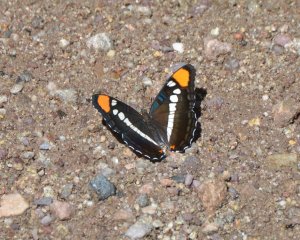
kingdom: Animalia
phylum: Arthropoda
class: Insecta
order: Lepidoptera
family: Nymphalidae
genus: Limenitis
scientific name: Limenitis bredowii
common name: Arizona Sister
